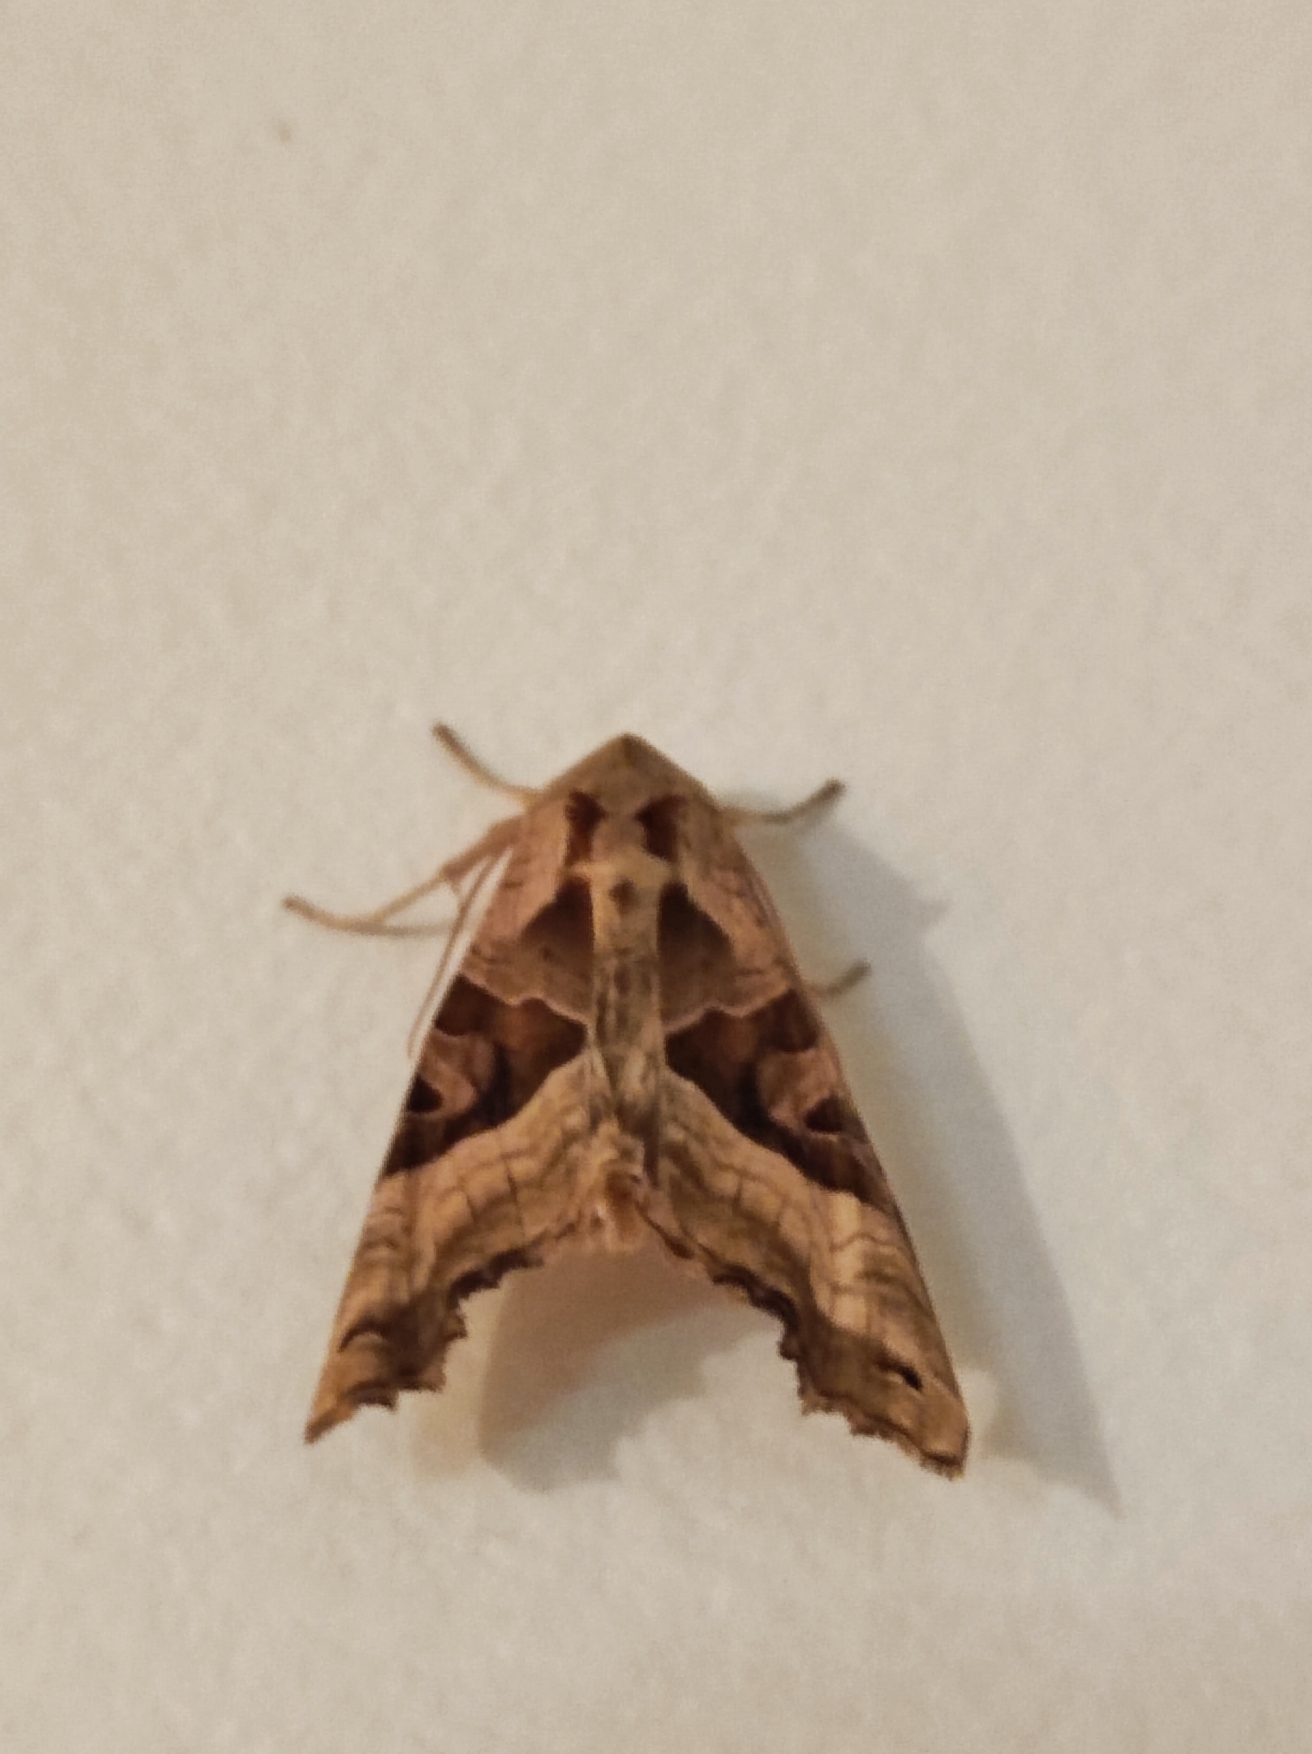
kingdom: Animalia
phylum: Arthropoda
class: Insecta
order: Lepidoptera
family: Noctuidae
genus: Phlogophora
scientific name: Phlogophora meticulosa
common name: Agatugle
